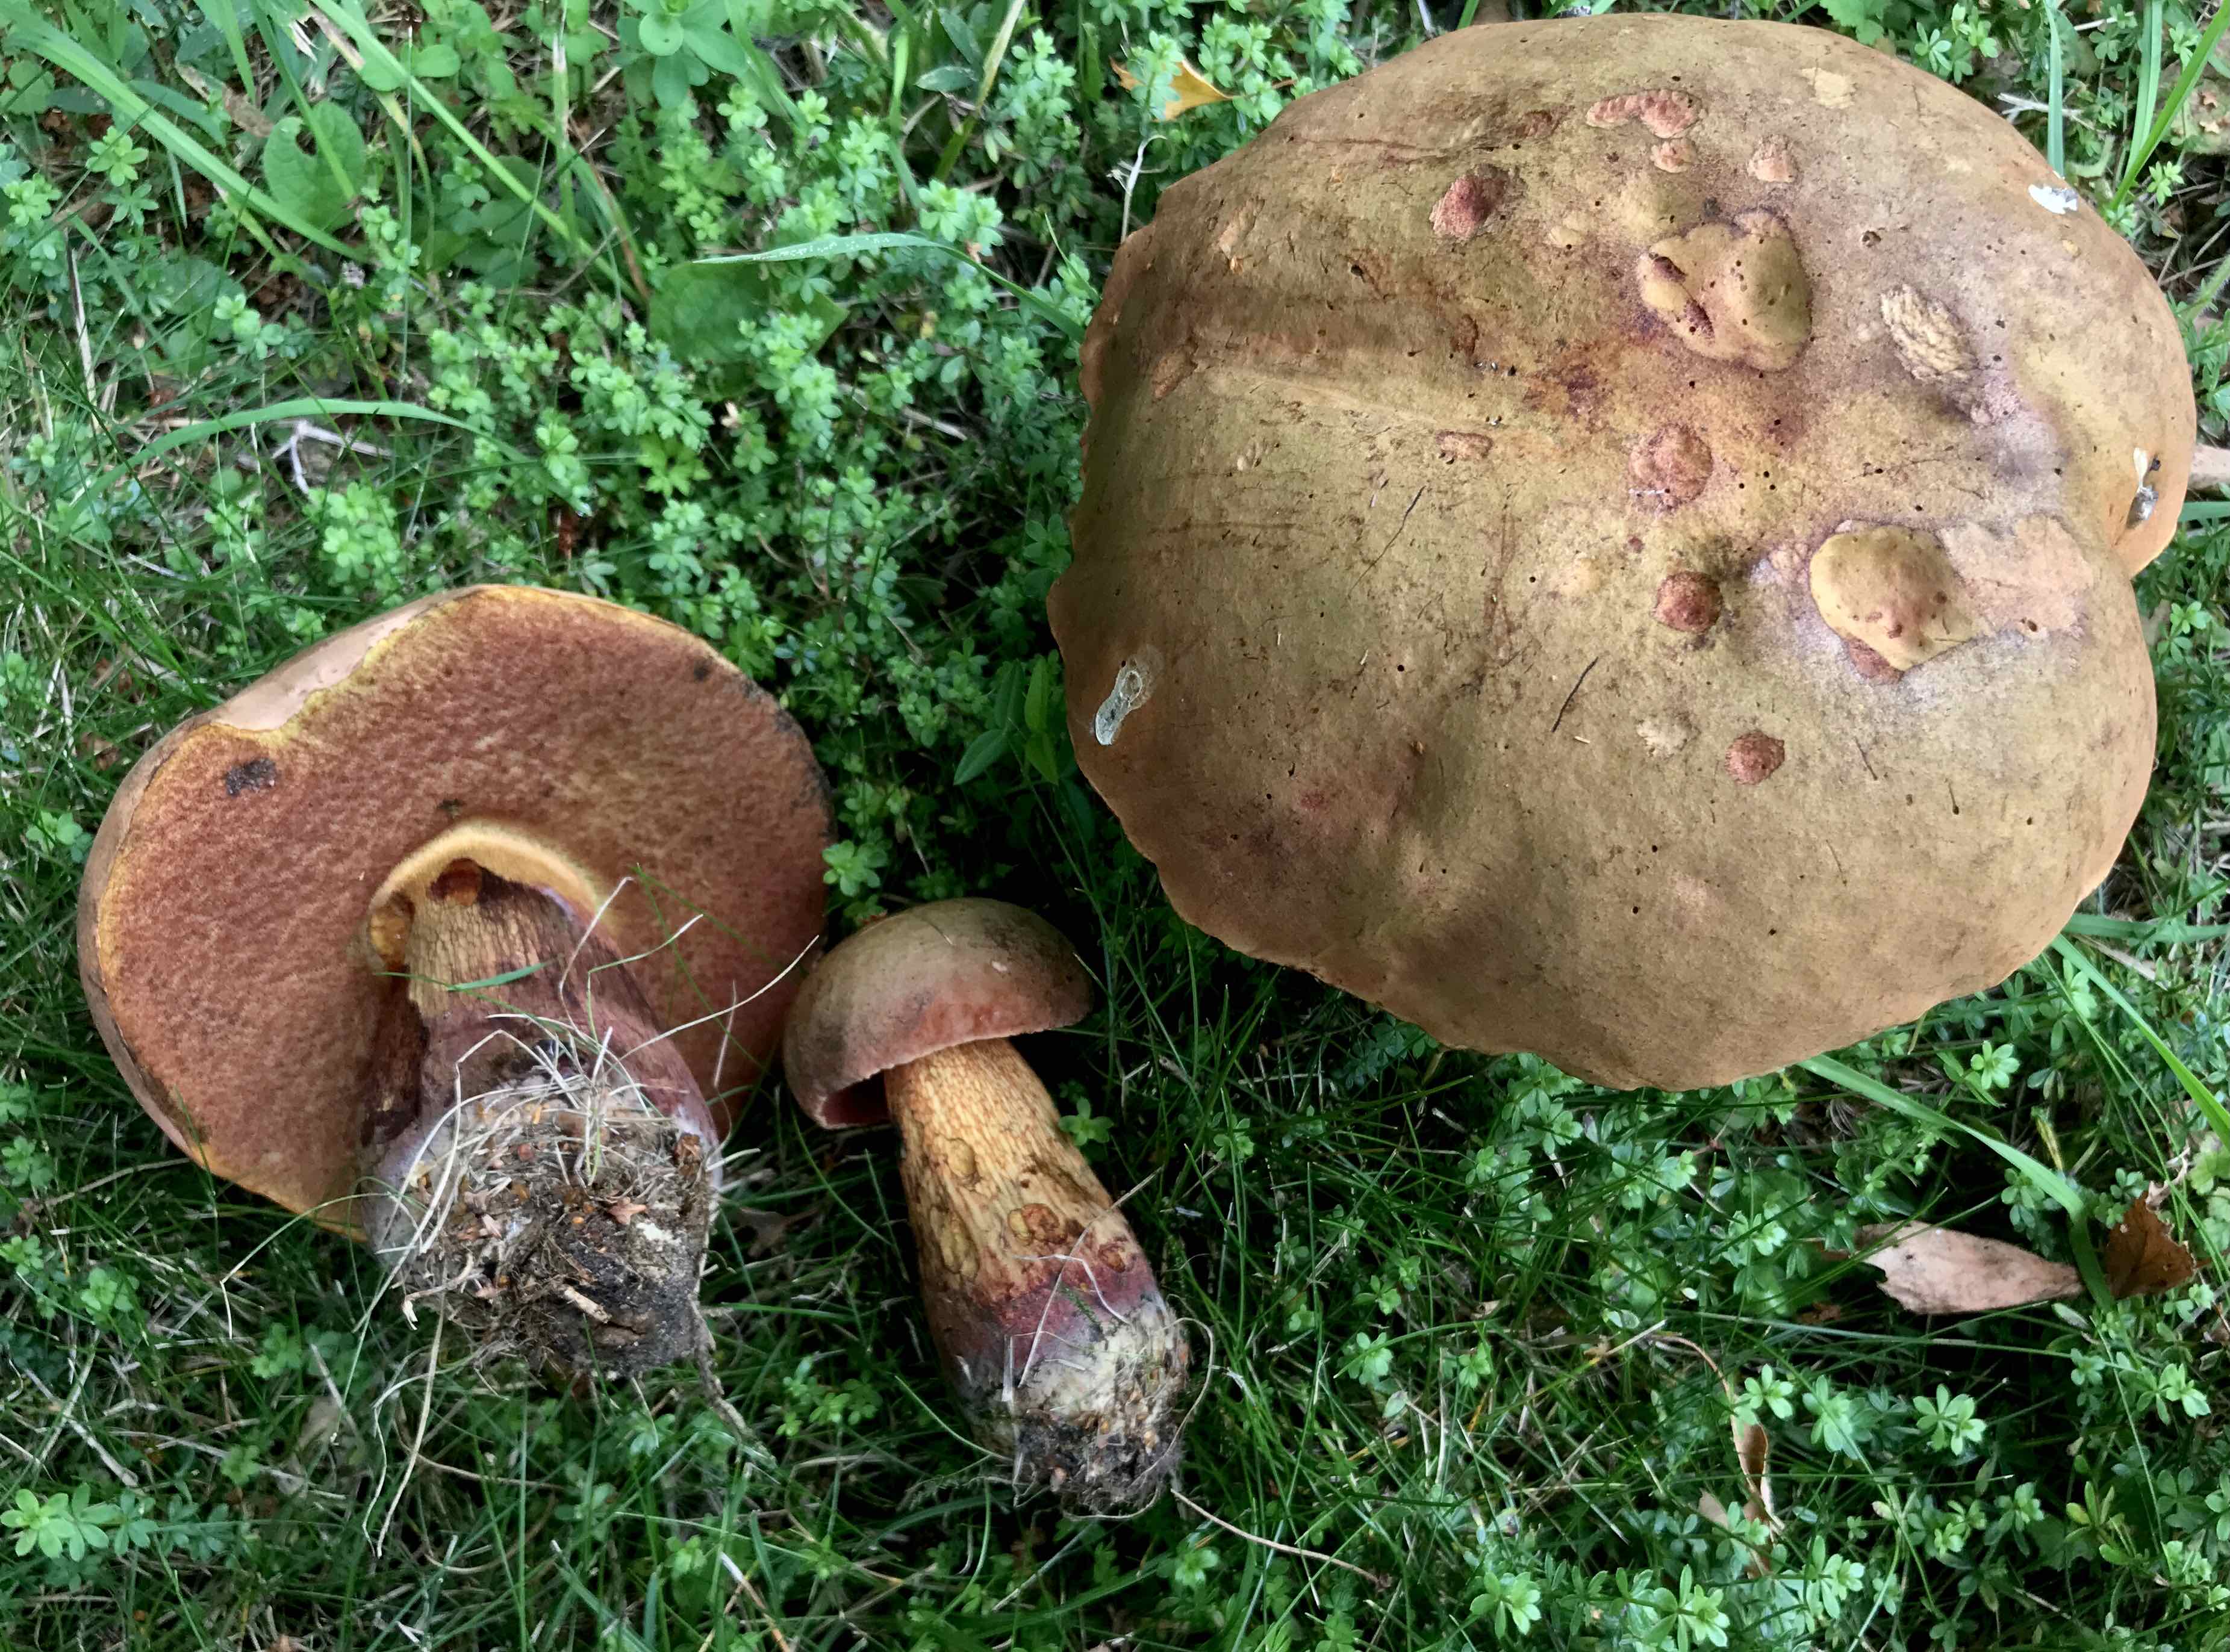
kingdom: Fungi
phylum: Basidiomycota
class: Agaricomycetes
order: Boletales
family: Boletaceae
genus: Suillellus
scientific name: Suillellus luridus
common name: netstokket indigorørhat
